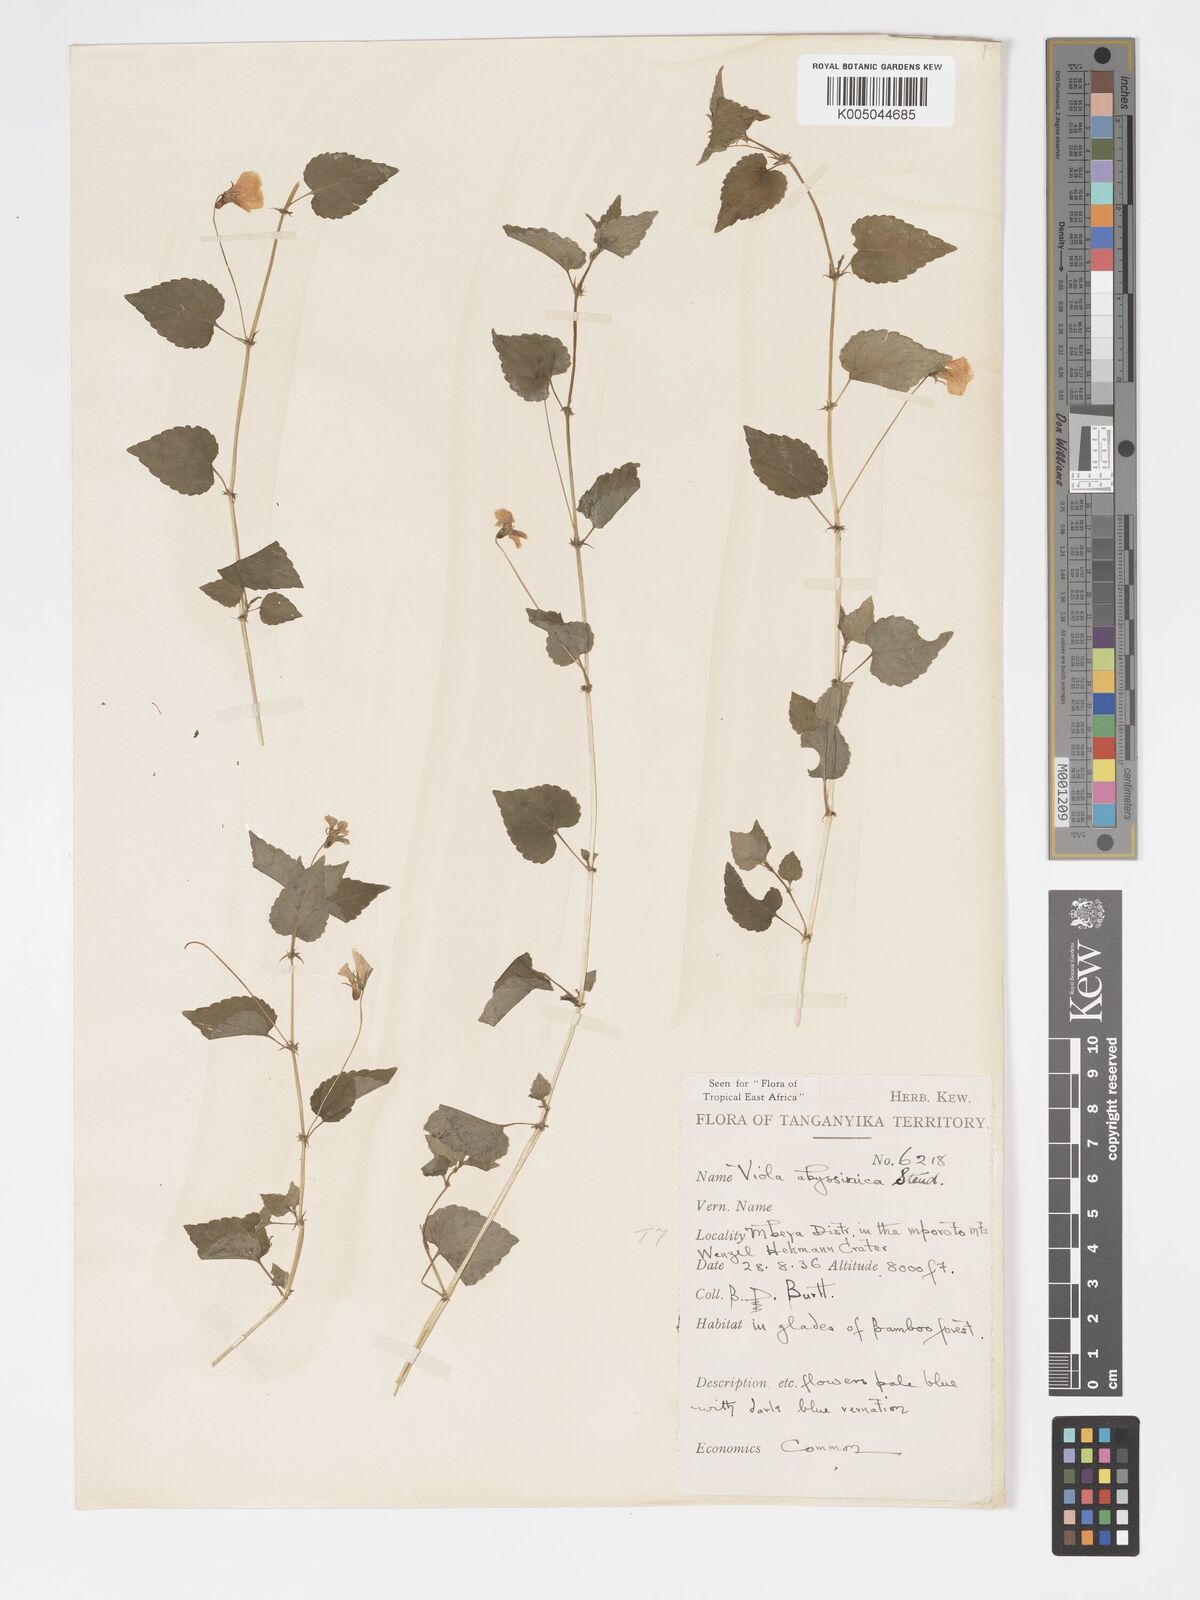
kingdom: Plantae
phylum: Tracheophyta
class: Magnoliopsida
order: Malpighiales
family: Violaceae
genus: Viola
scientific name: Viola abyssinica
